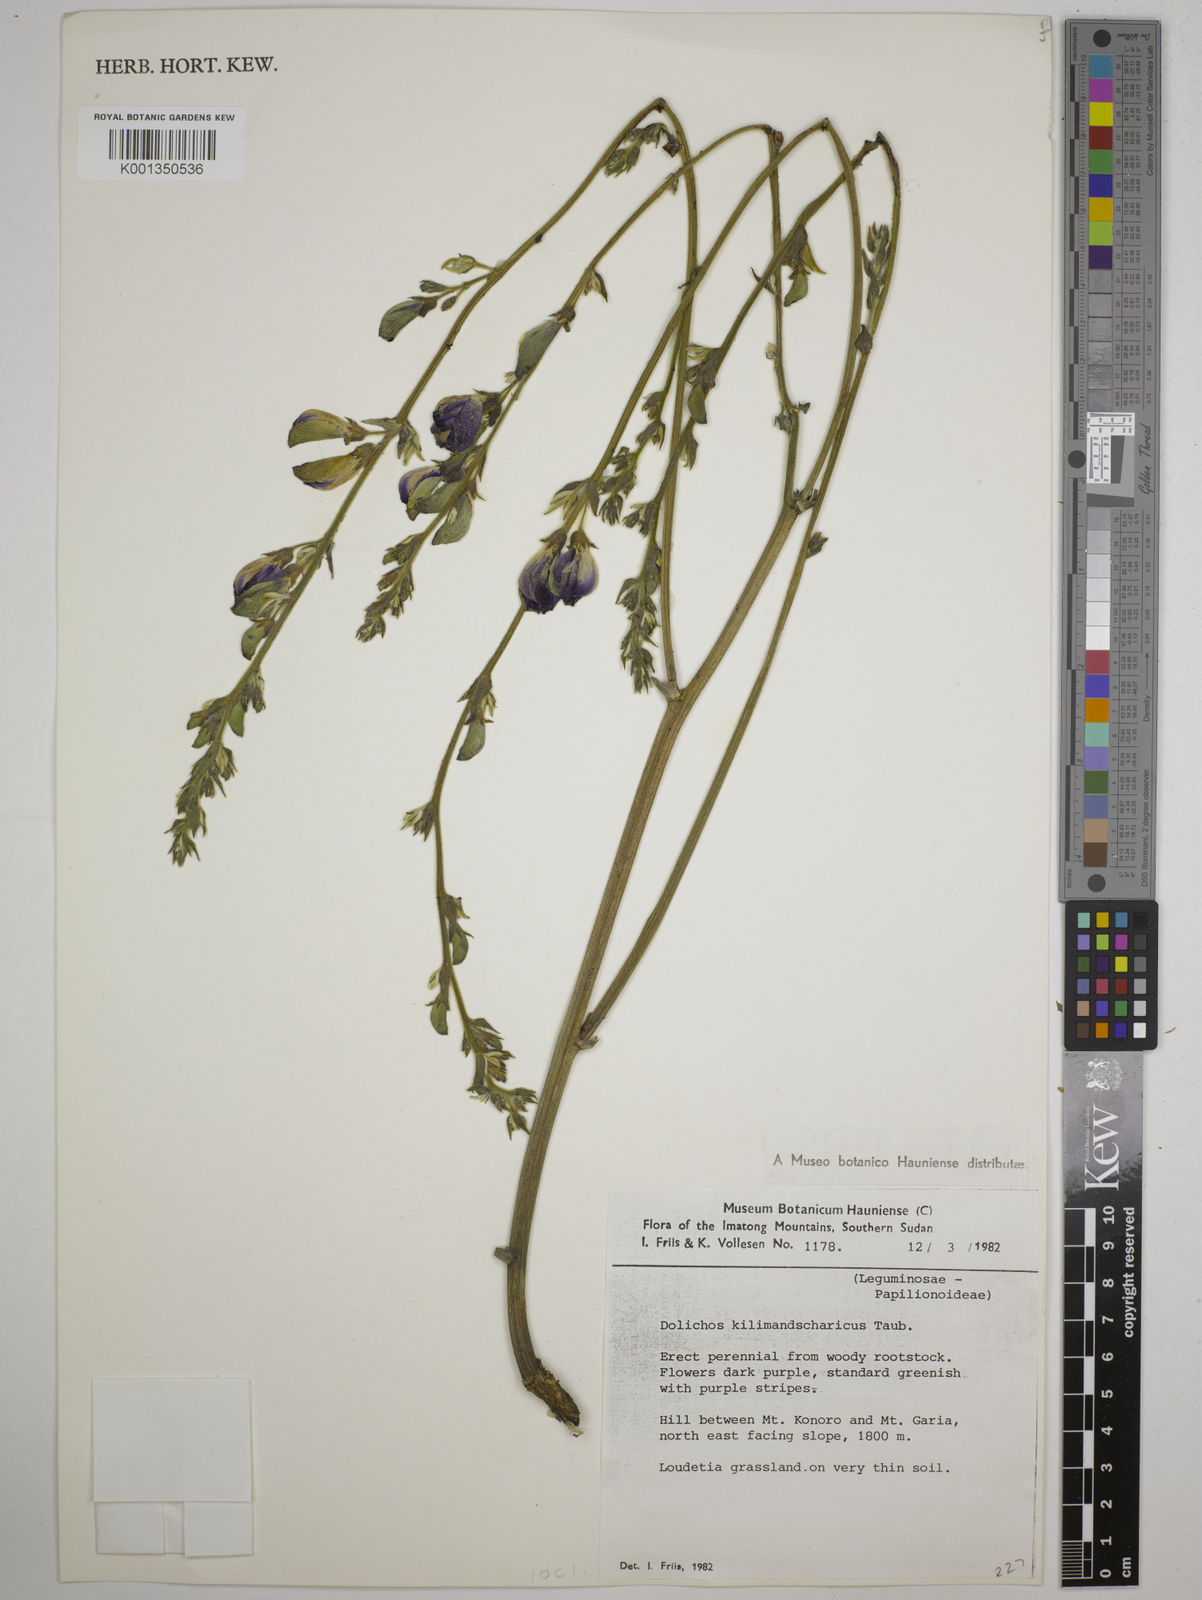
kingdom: Plantae
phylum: Tracheophyta
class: Magnoliopsida
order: Fabales
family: Fabaceae
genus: Dolichos
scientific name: Dolichos kilimandscharicus
